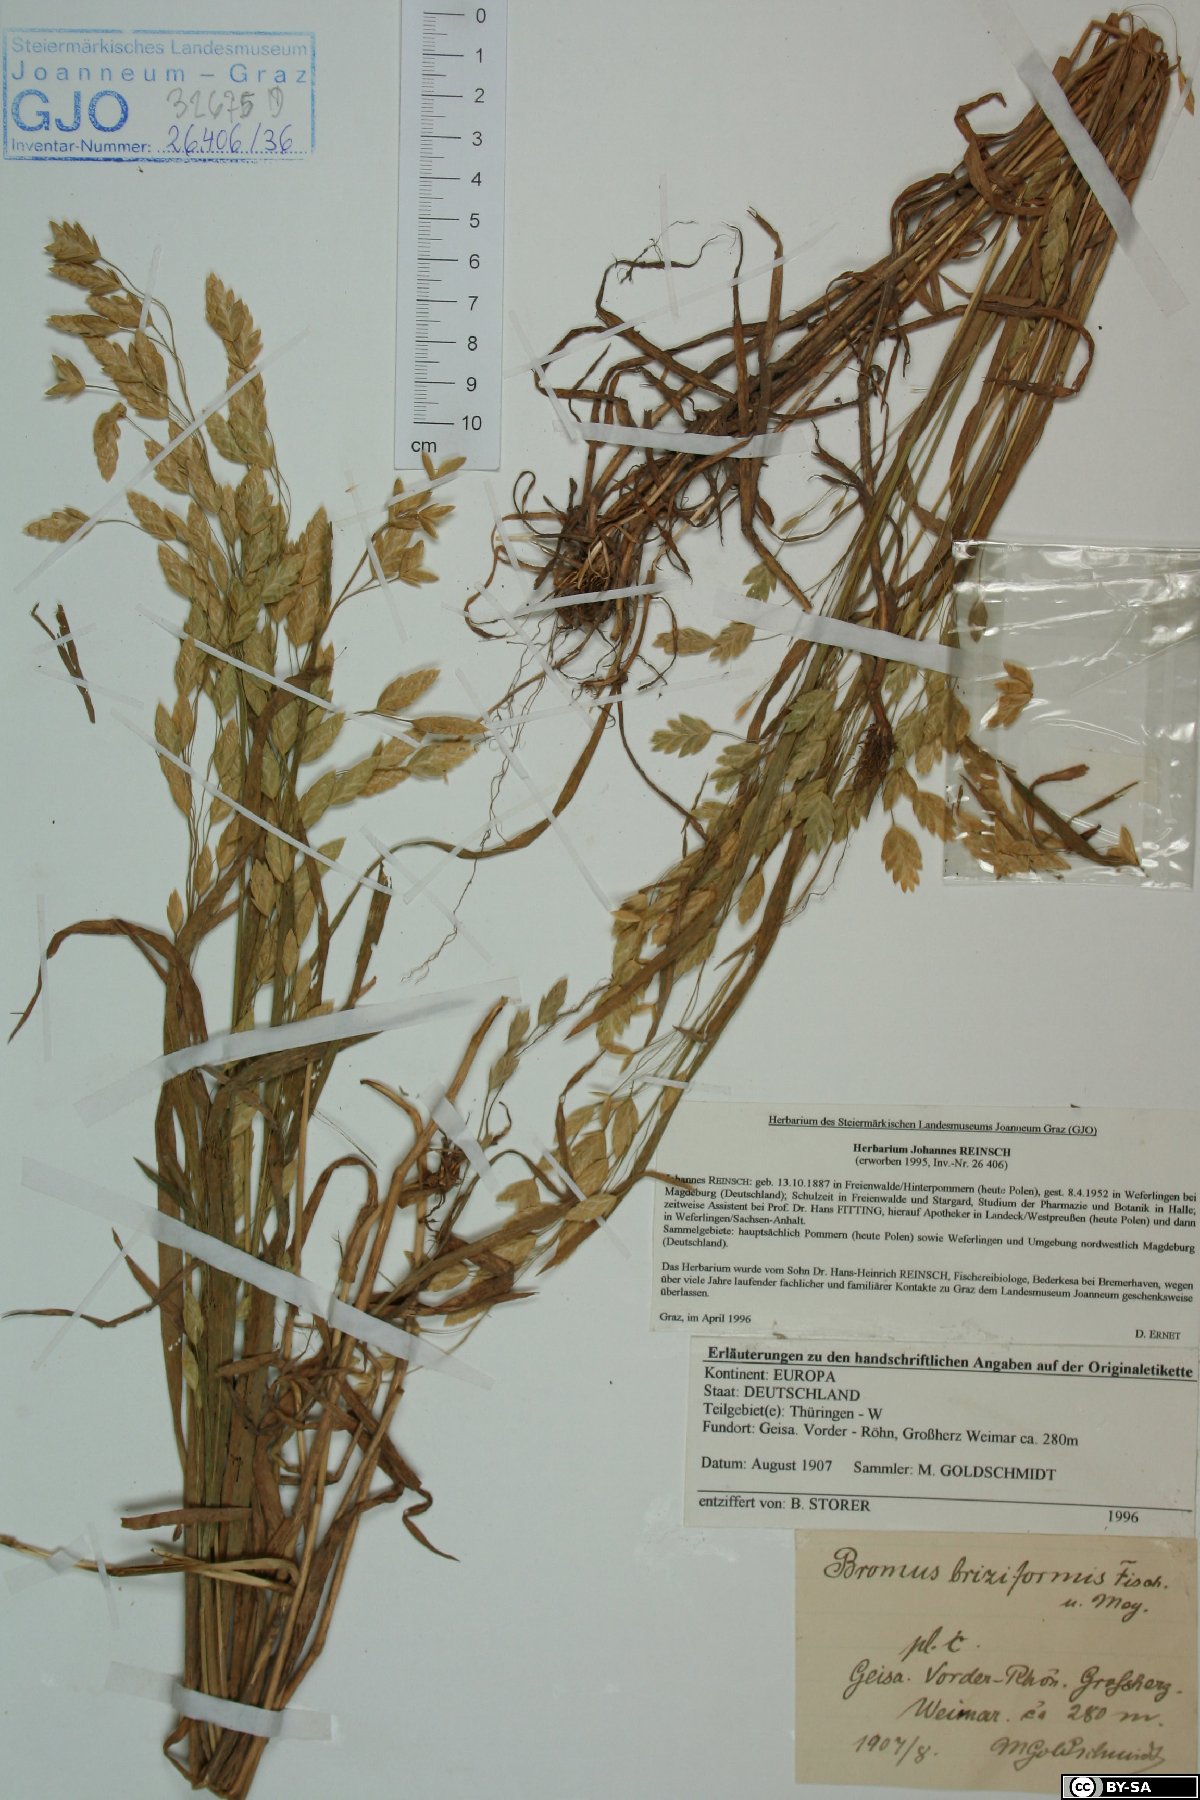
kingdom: Plantae
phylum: Tracheophyta
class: Liliopsida
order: Poales
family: Poaceae
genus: Bromus
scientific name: Bromus briziformis
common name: Rattlesnake brome
